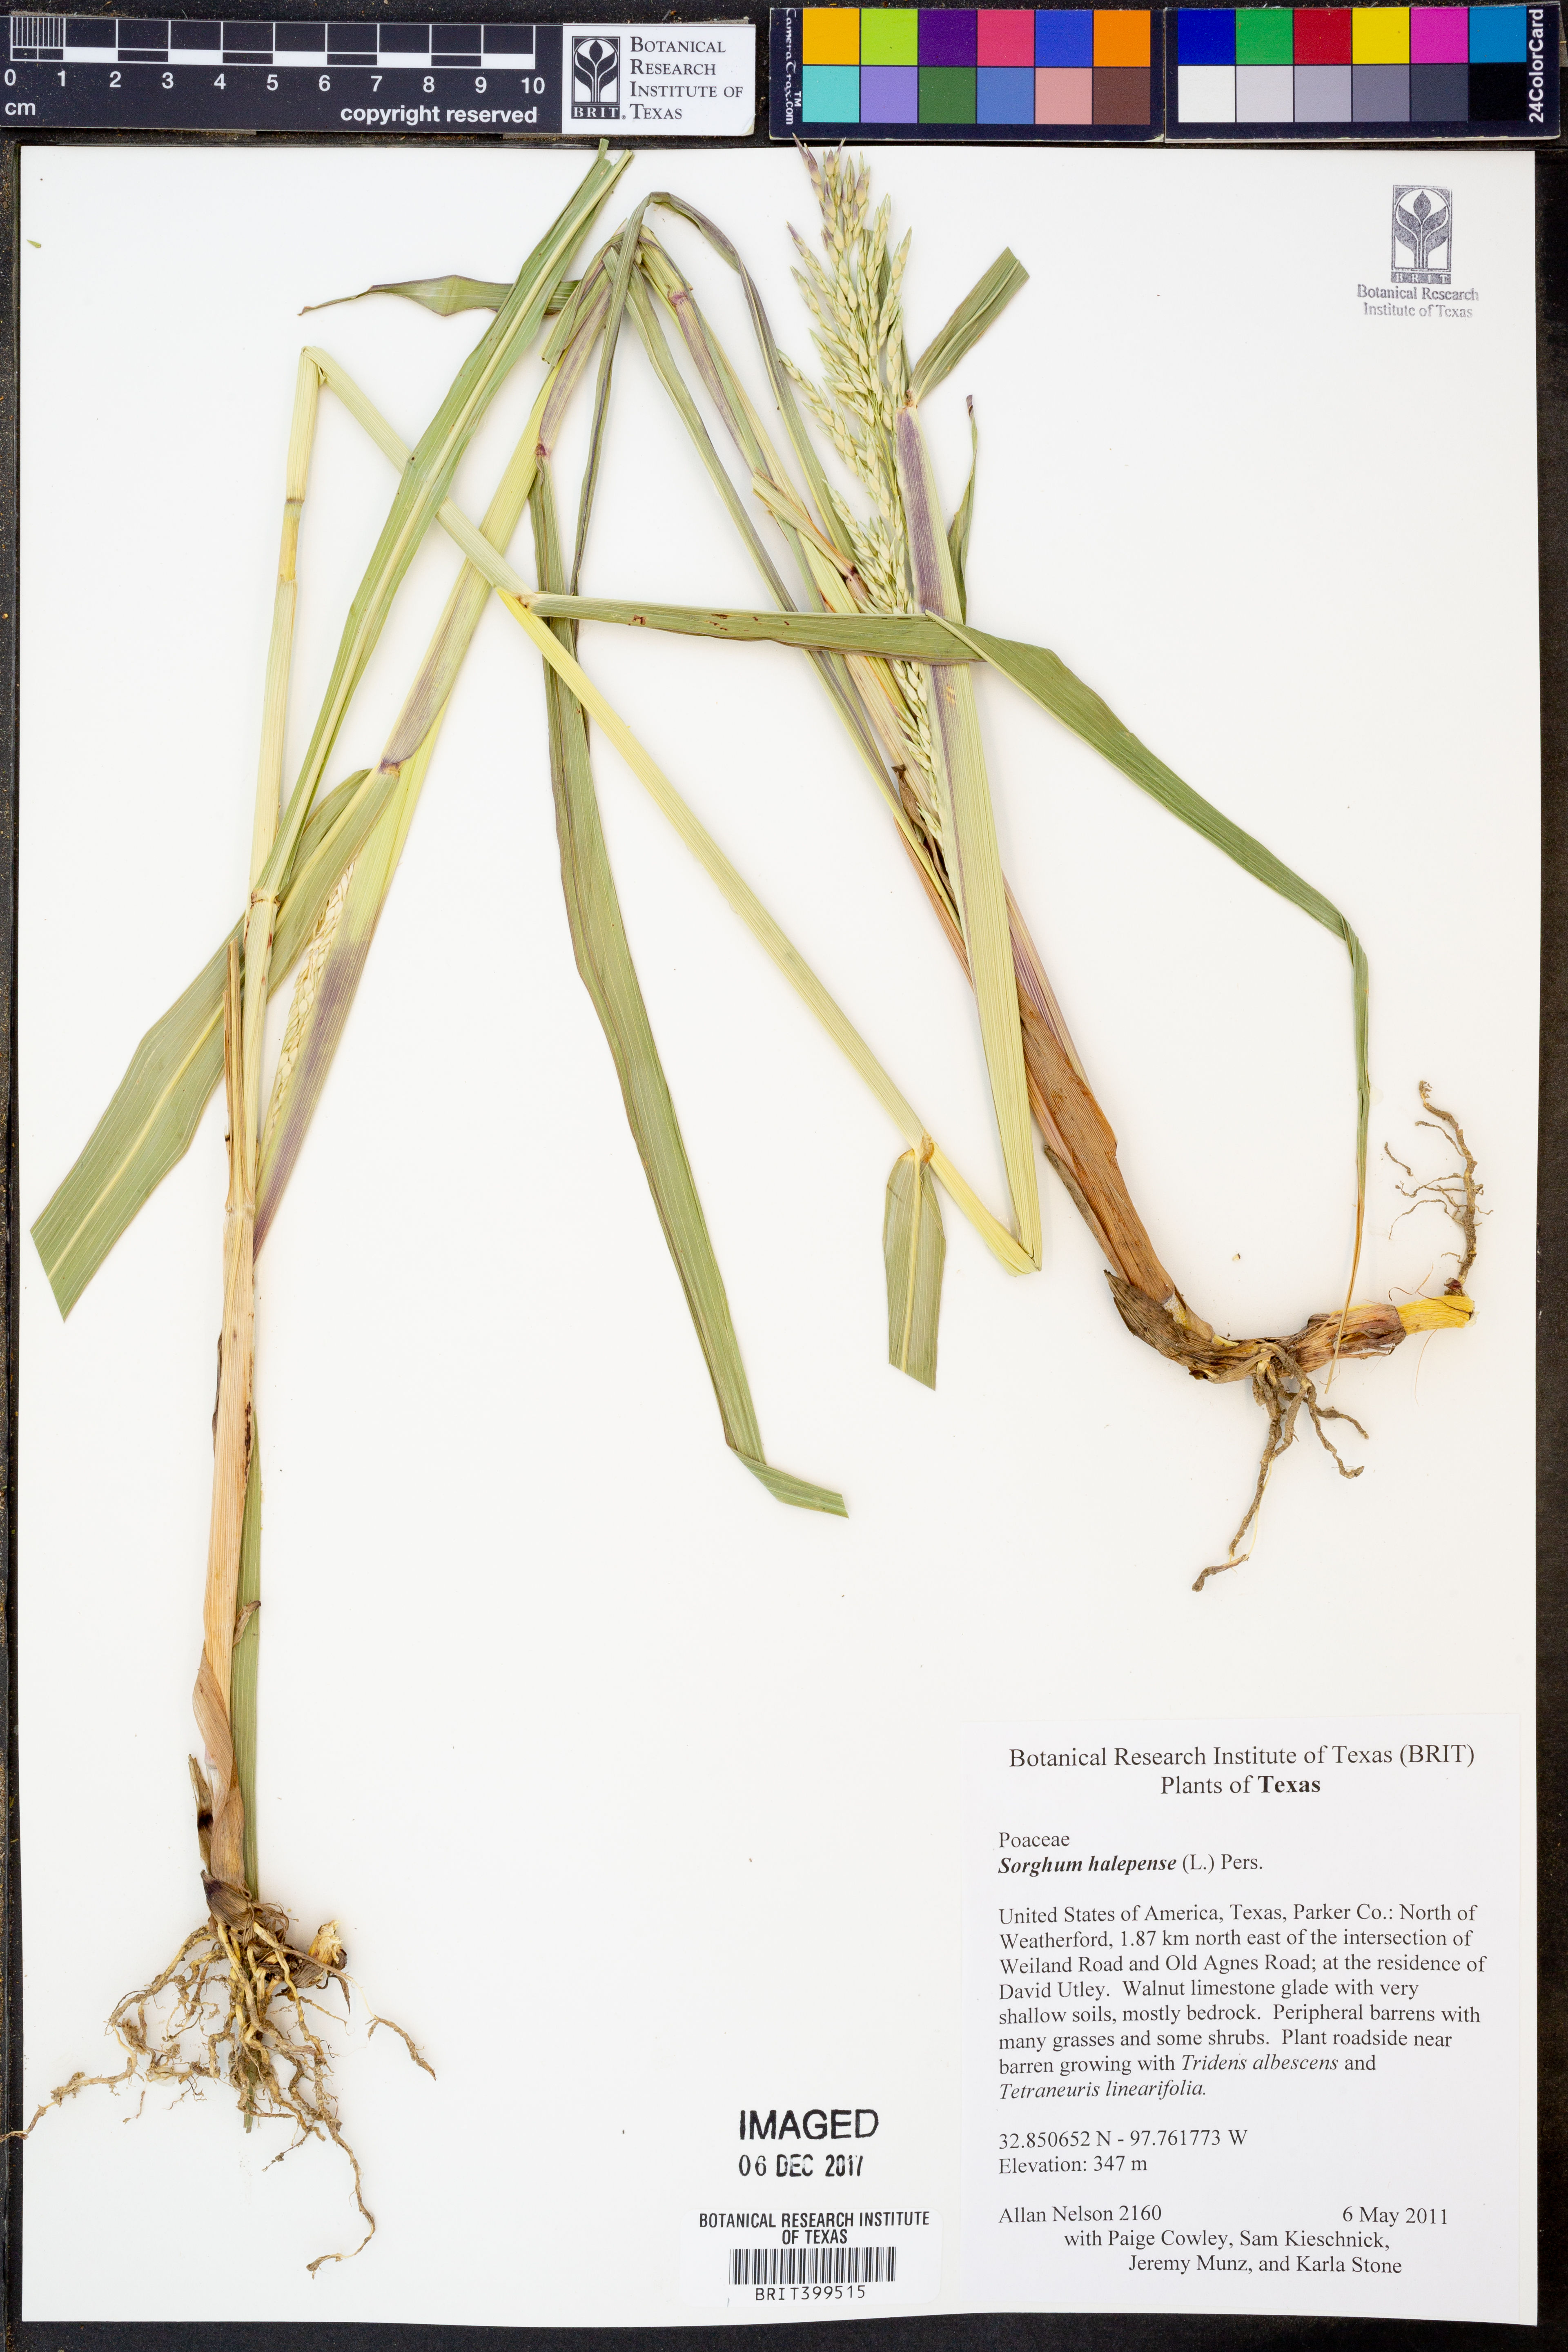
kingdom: Plantae
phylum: Tracheophyta
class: Liliopsida
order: Poales
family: Poaceae
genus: Sorghum
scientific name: Sorghum halepense
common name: Johnson-grass
